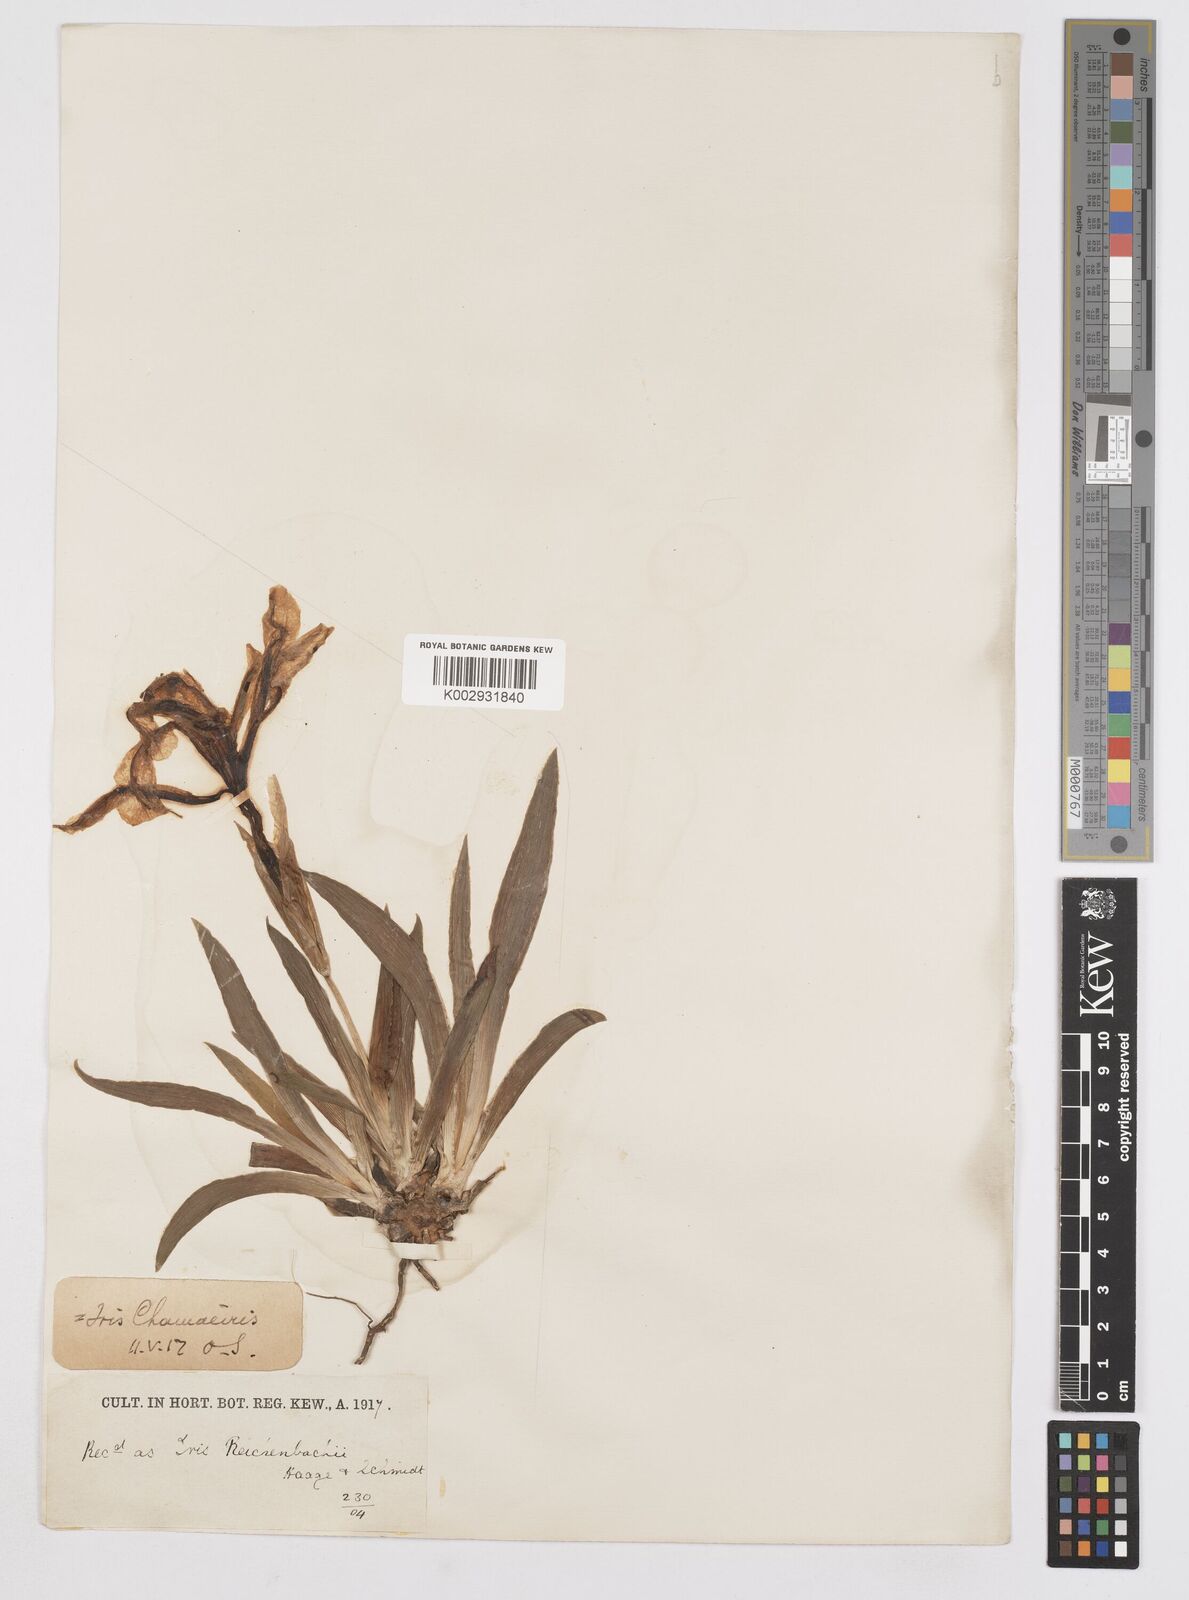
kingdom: Plantae
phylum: Tracheophyta
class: Liliopsida
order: Asparagales
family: Iridaceae
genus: Iris
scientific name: Iris lutescens
